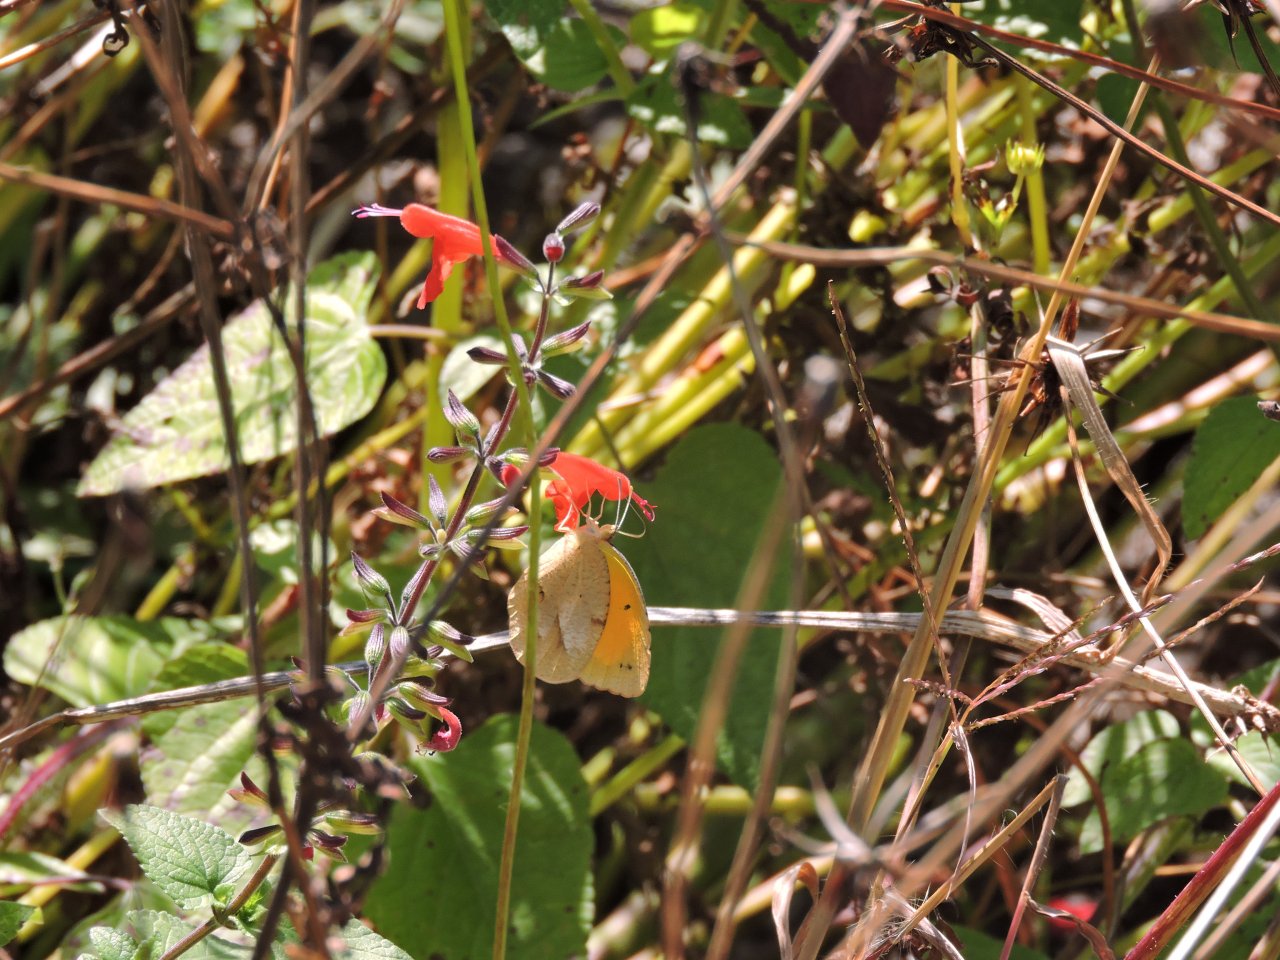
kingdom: Animalia
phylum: Arthropoda
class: Insecta
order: Lepidoptera
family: Pieridae
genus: Abaeis
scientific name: Abaeis nicippe
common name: Sleepy Orange
